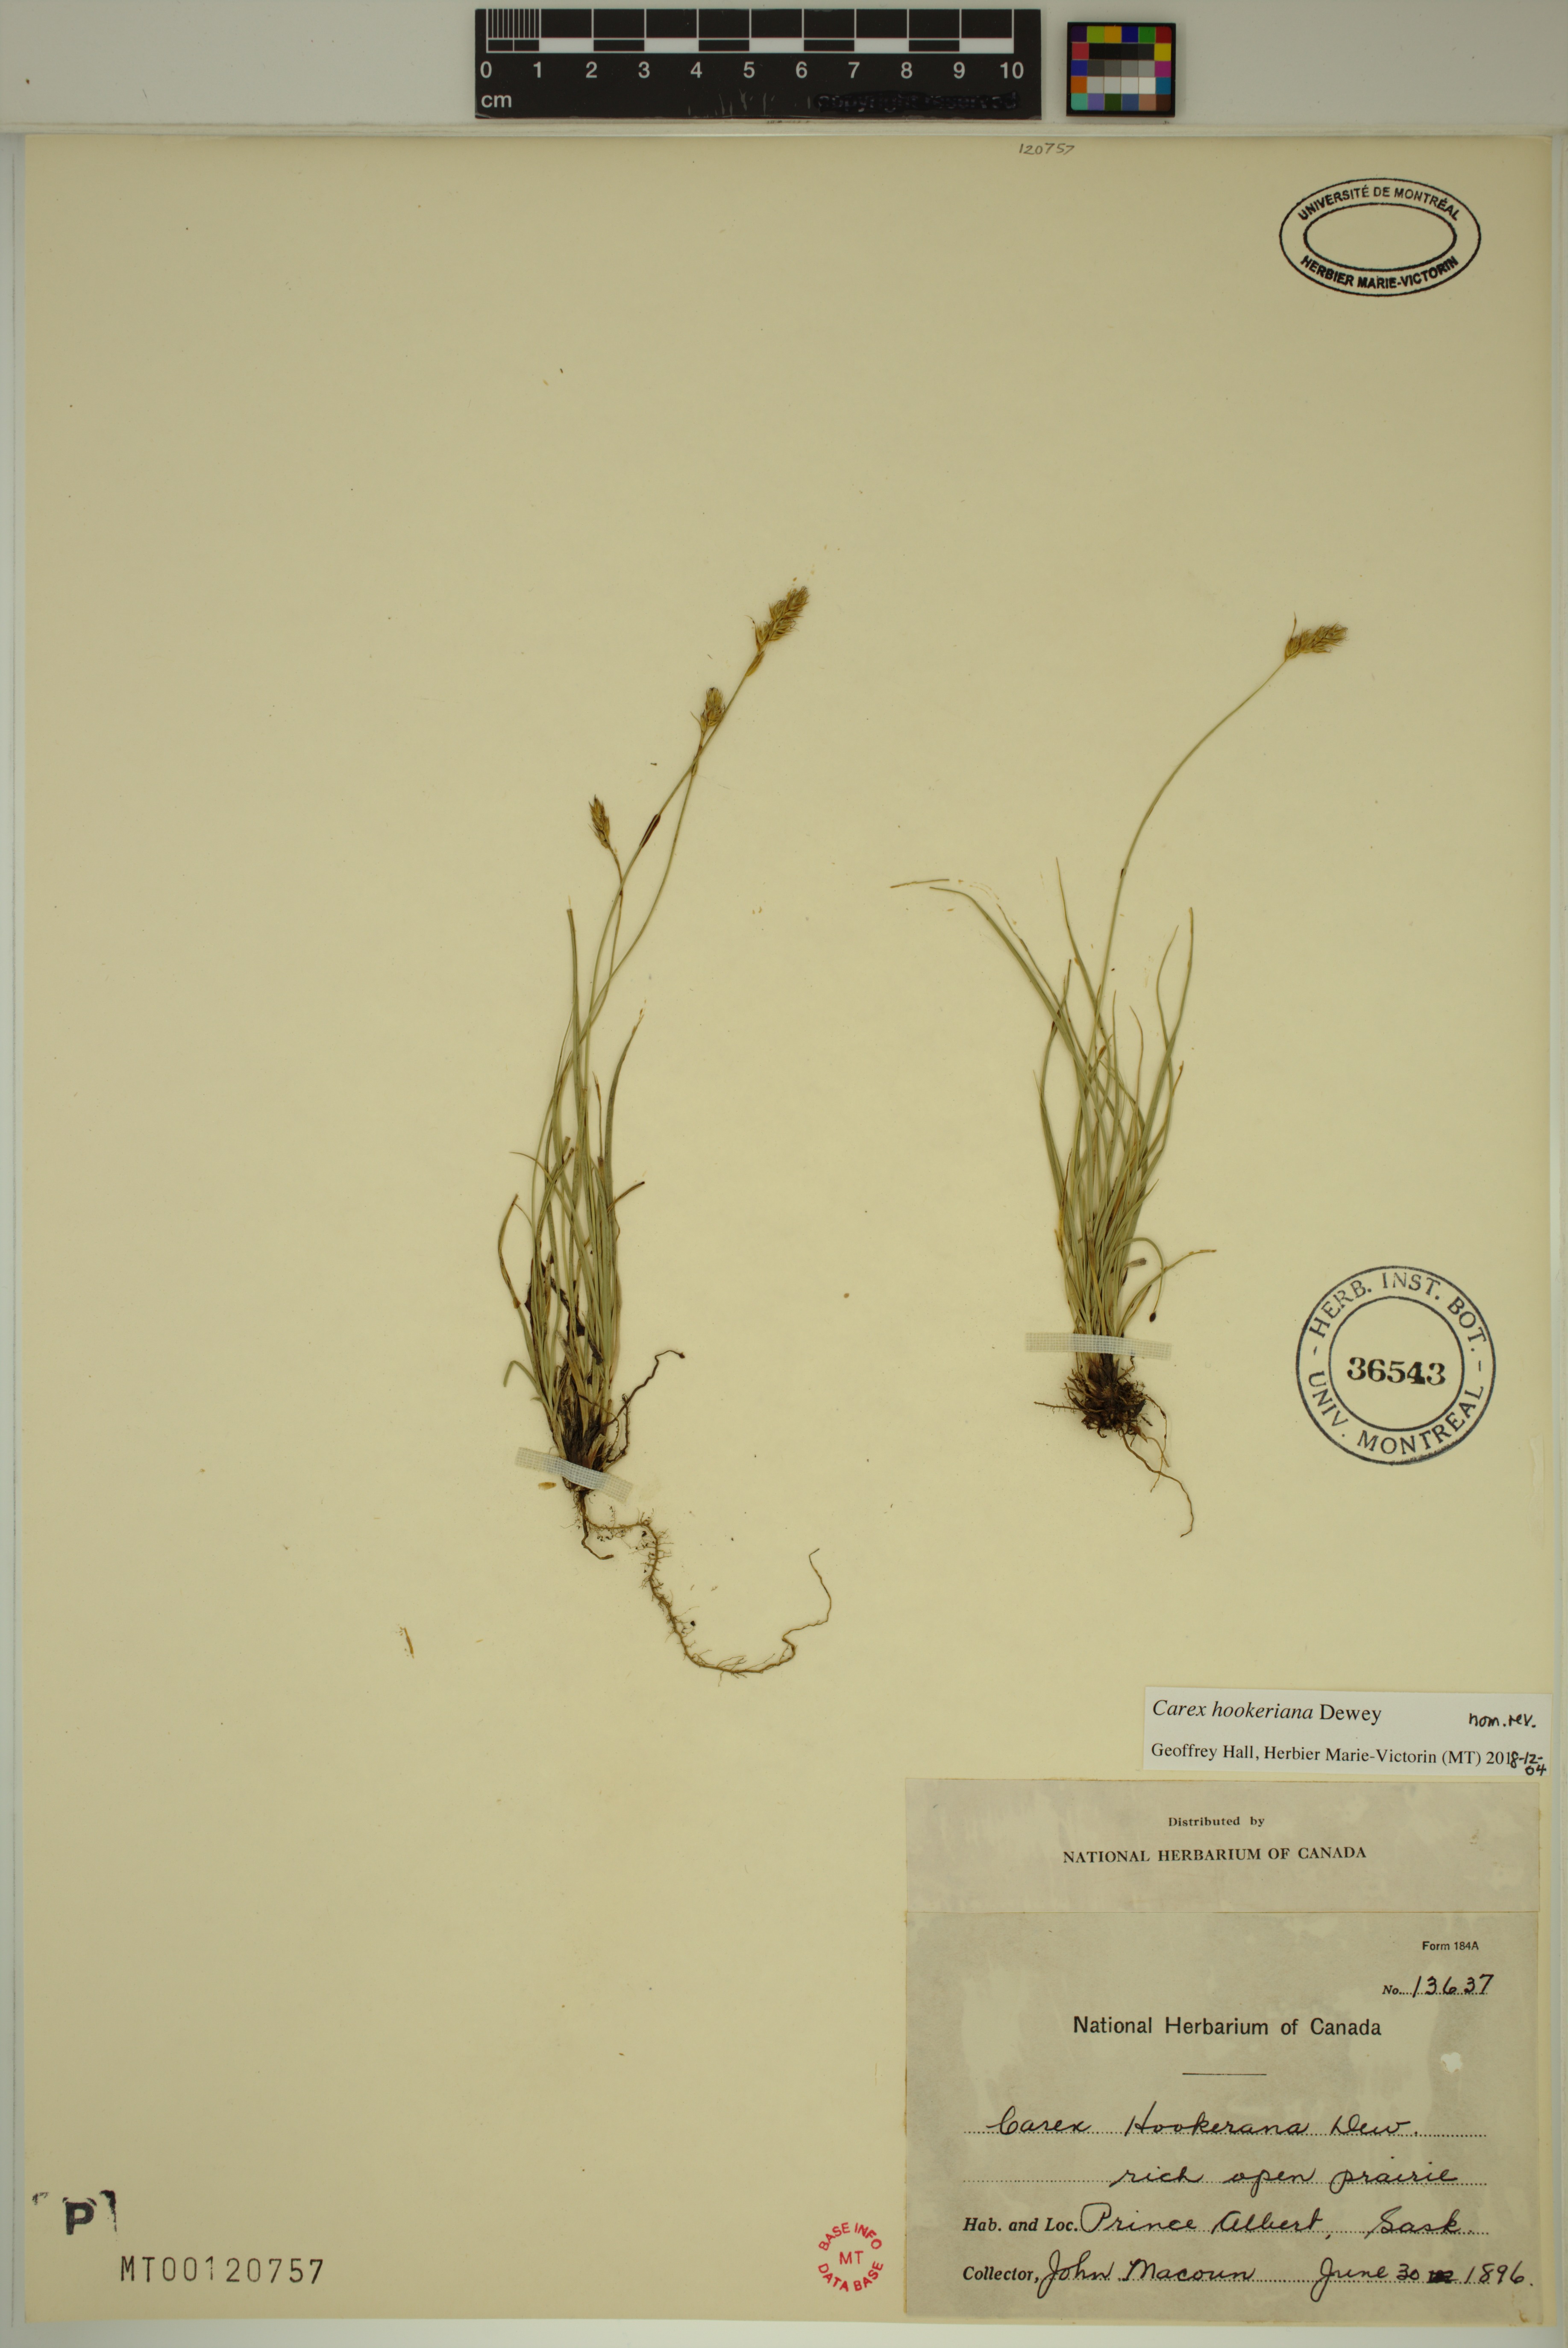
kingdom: Plantae
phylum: Tracheophyta
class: Liliopsida
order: Poales
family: Cyperaceae
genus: Carex
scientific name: Carex hookeriana
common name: Hooker's sedge
